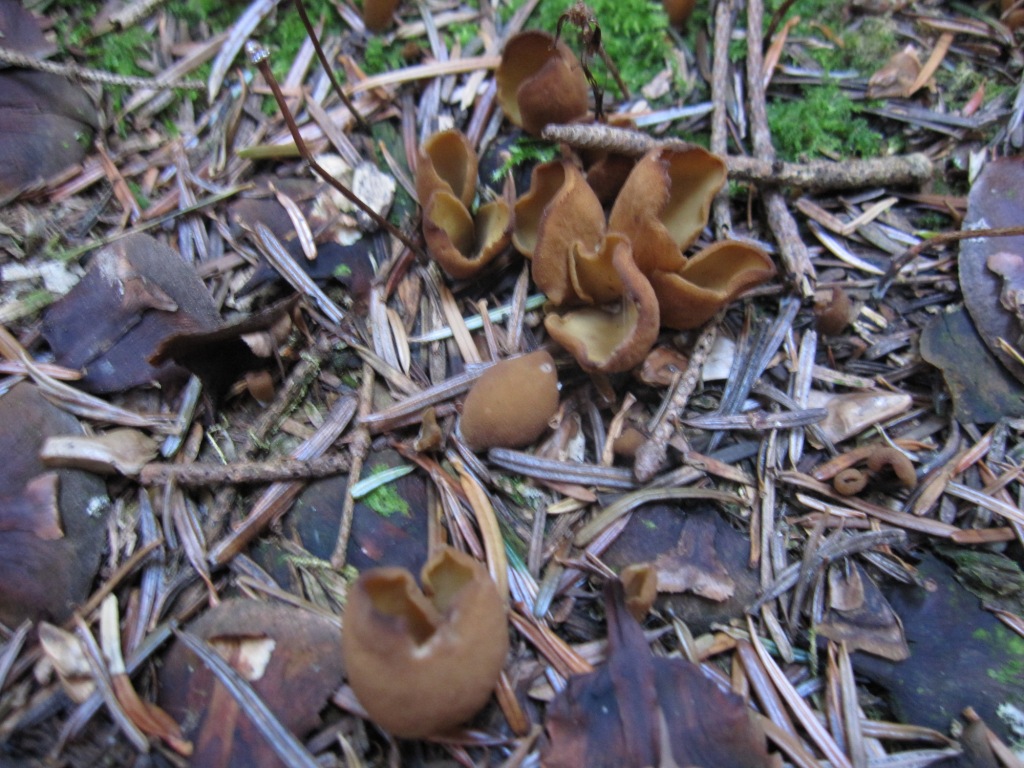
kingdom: Fungi
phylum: Ascomycota
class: Pezizomycetes
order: Pezizales
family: Otideaceae
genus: Otidea
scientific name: Otidea nannfeldtii
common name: jolle-ørebæger
